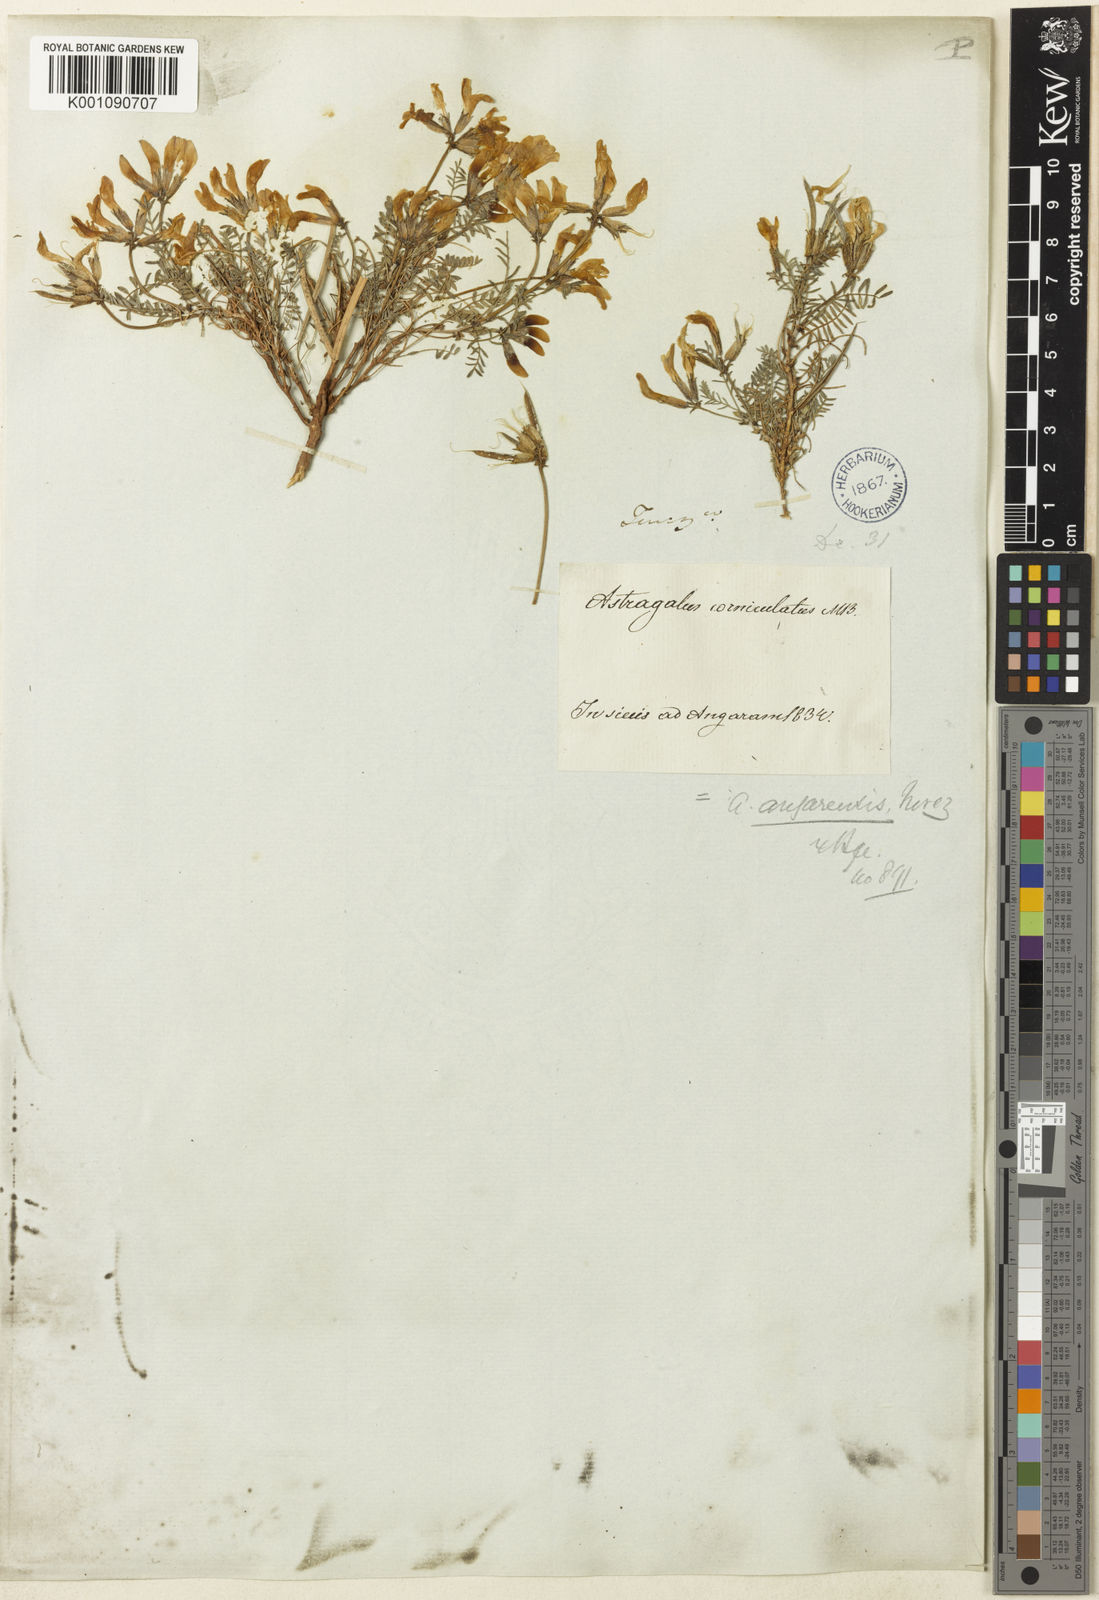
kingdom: Plantae
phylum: Tracheophyta
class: Magnoliopsida
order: Fabales
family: Fabaceae
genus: Astragalus
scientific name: Astragalus
